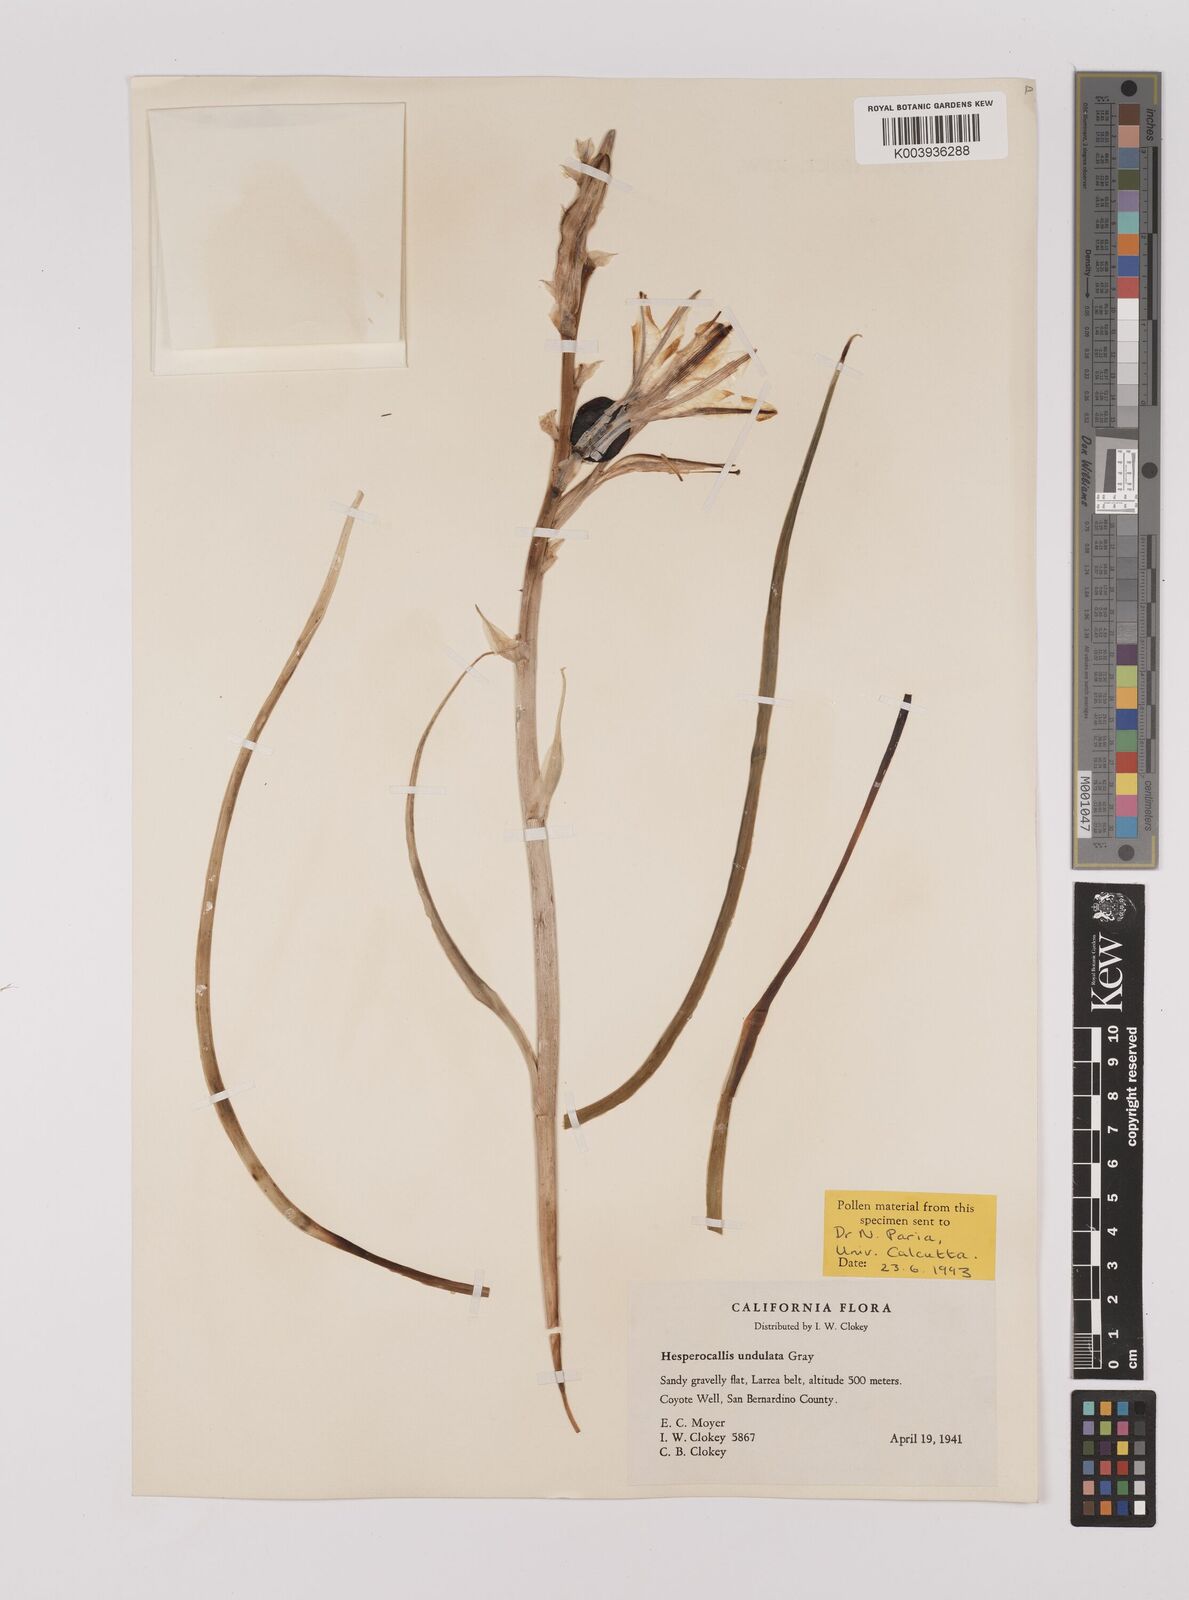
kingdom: Plantae
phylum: Tracheophyta
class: Liliopsida
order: Asparagales
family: Asparagaceae
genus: Hesperocallis
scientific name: Hesperocallis
